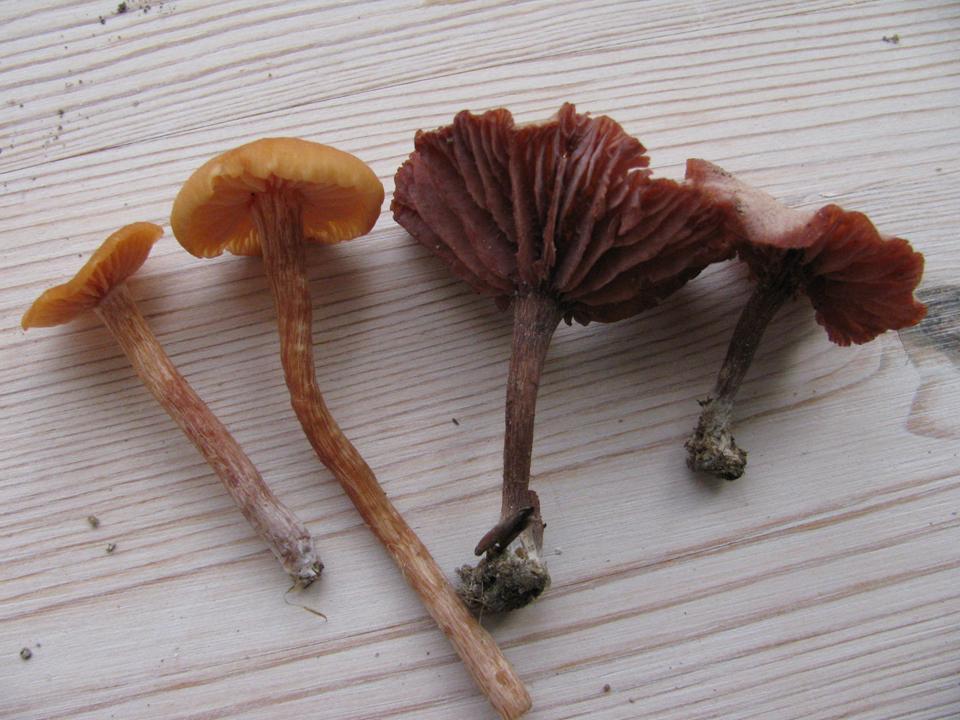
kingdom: Fungi
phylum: Basidiomycota
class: Agaricomycetes
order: Agaricales
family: Hydnangiaceae
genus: Laccaria
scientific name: Laccaria laccata
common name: rød ametysthat
